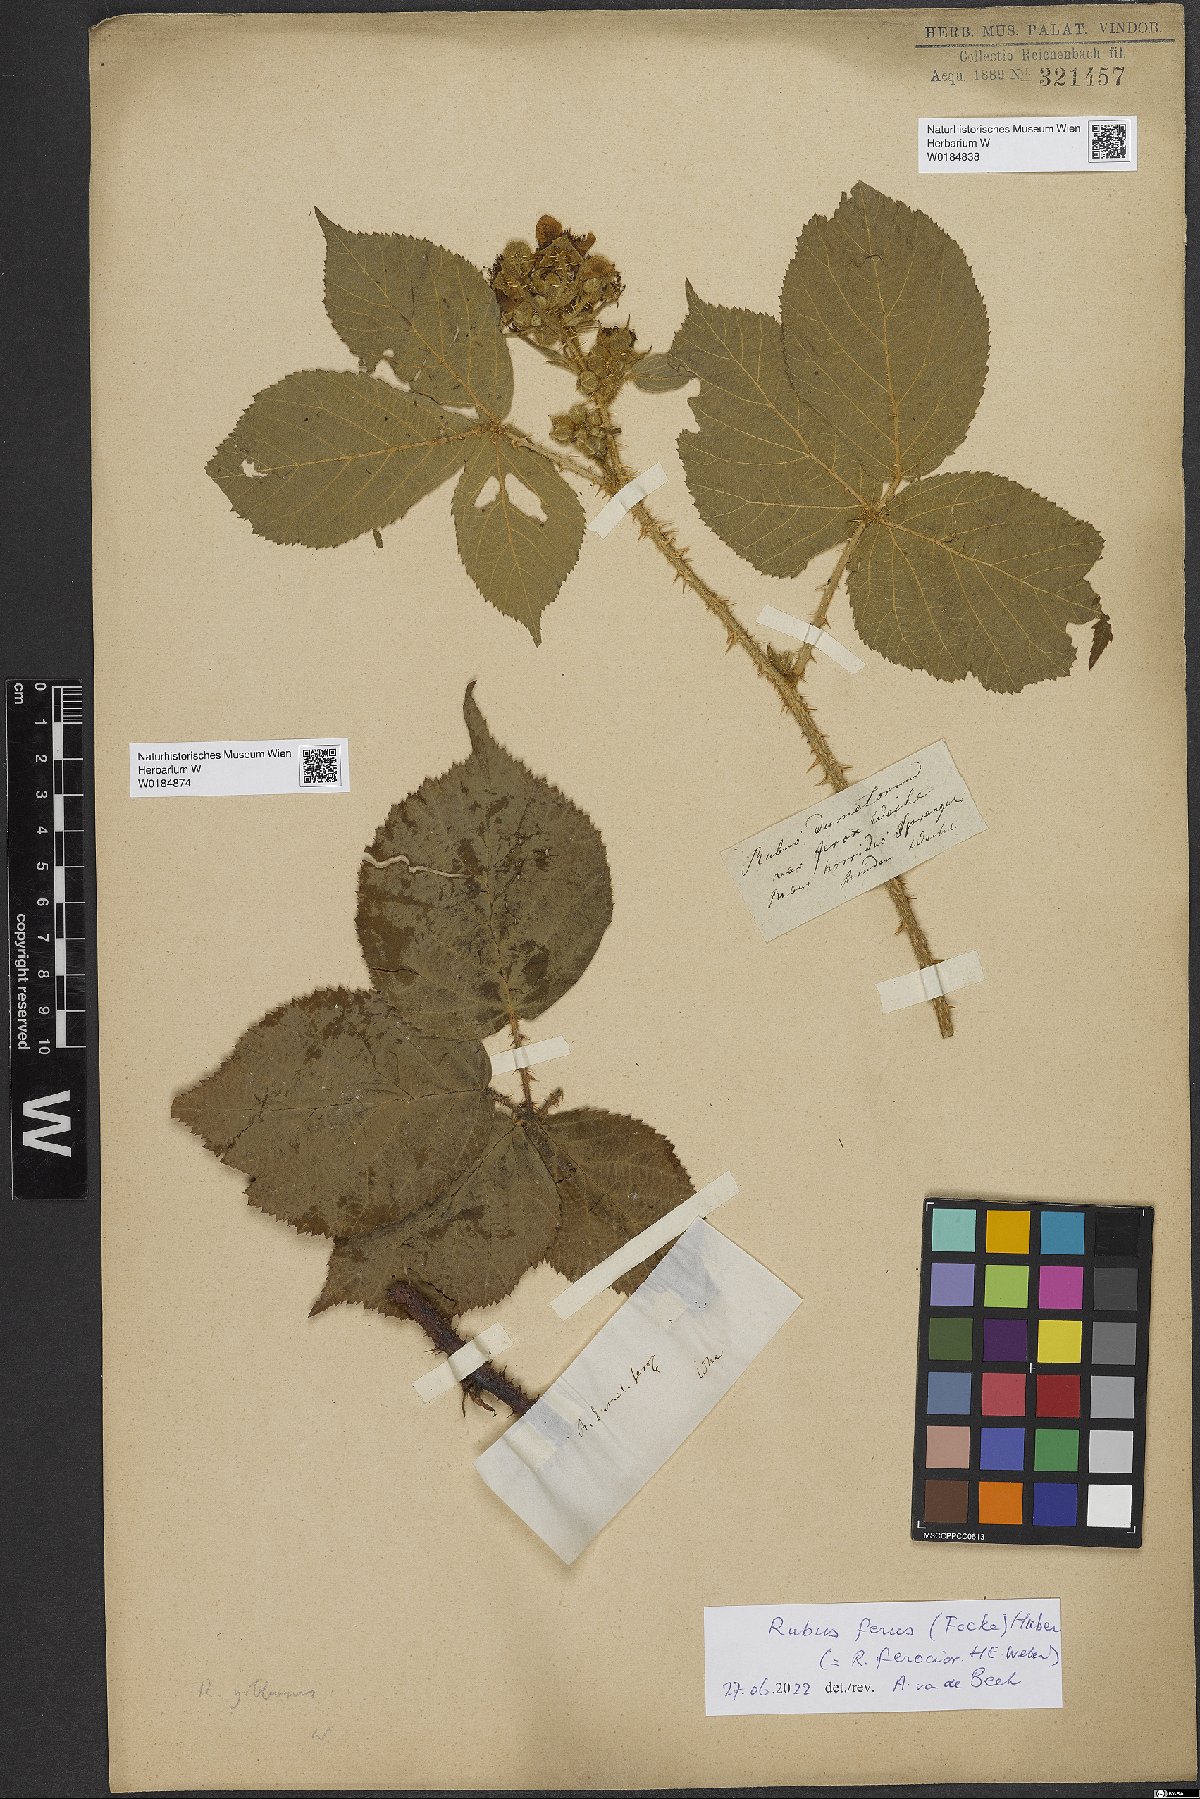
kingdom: Plantae
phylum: Tracheophyta
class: Magnoliopsida
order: Rosales
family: Rosaceae
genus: Rubus
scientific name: Rubus ferus
